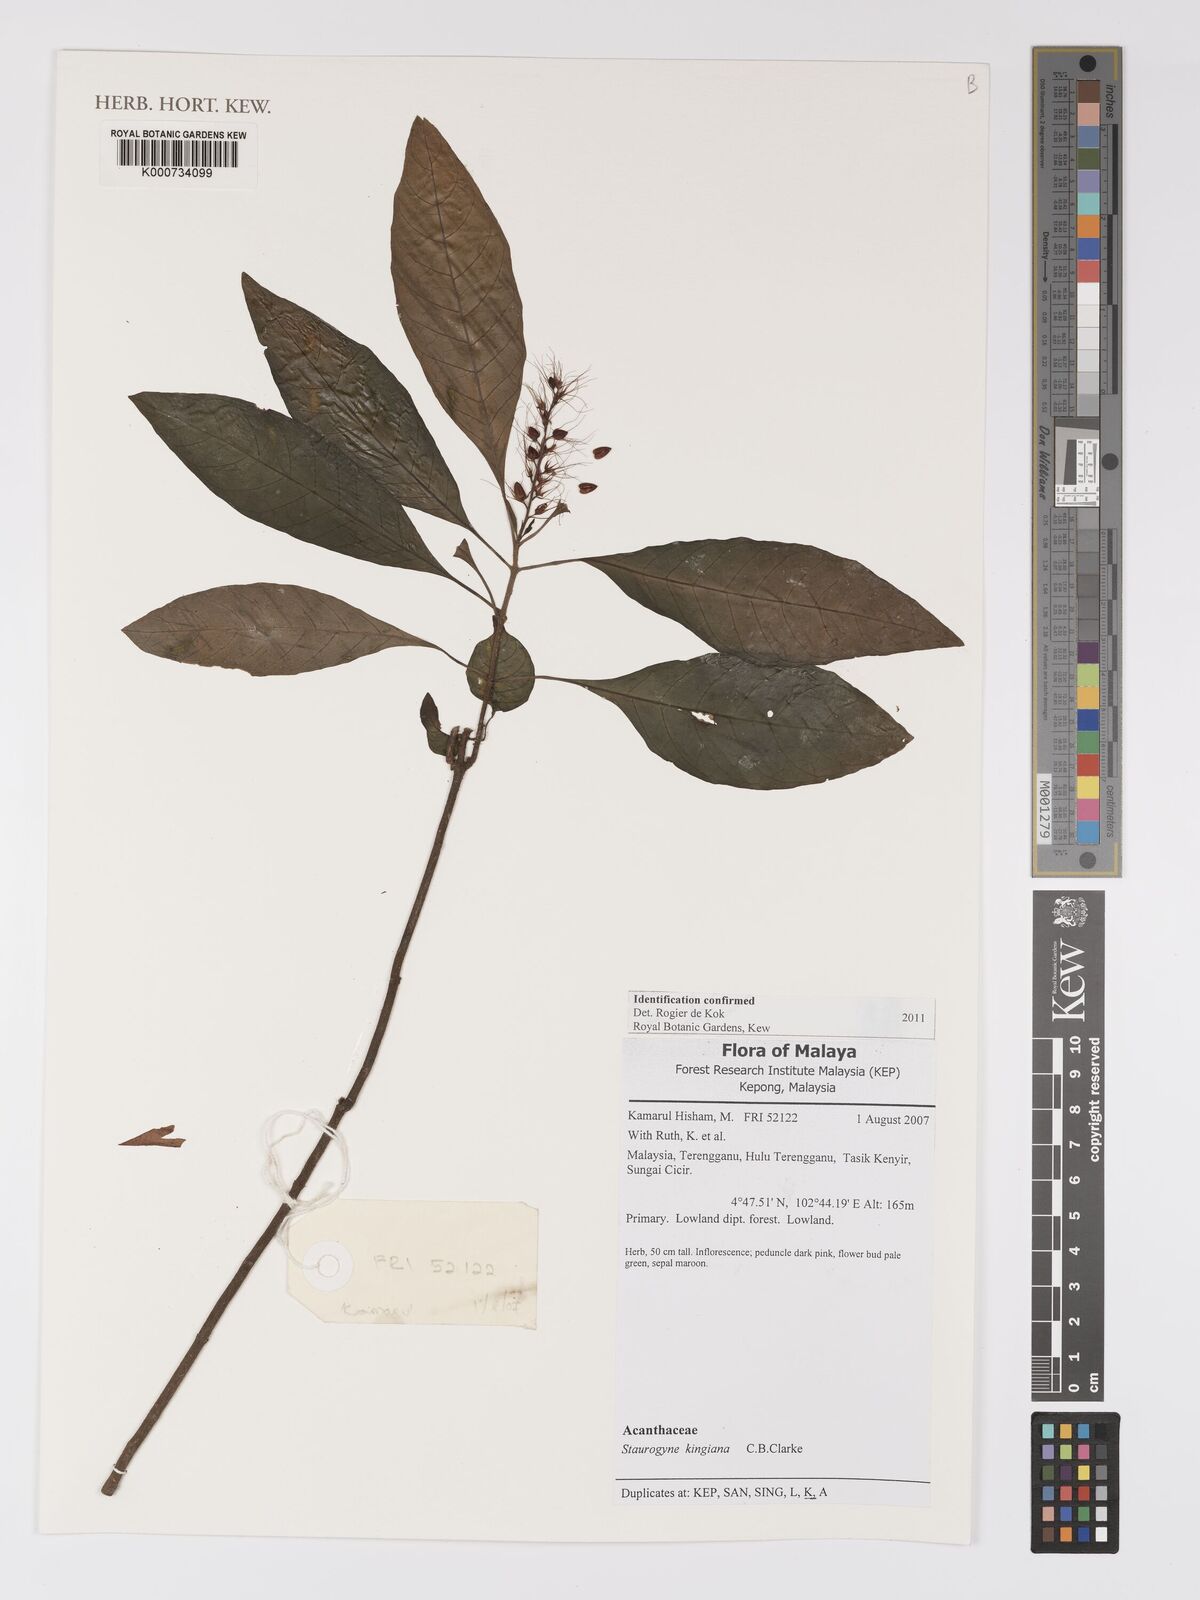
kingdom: Plantae
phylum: Tracheophyta
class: Magnoliopsida
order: Lamiales
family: Acanthaceae
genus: Staurogyne
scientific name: Staurogyne kingiana
